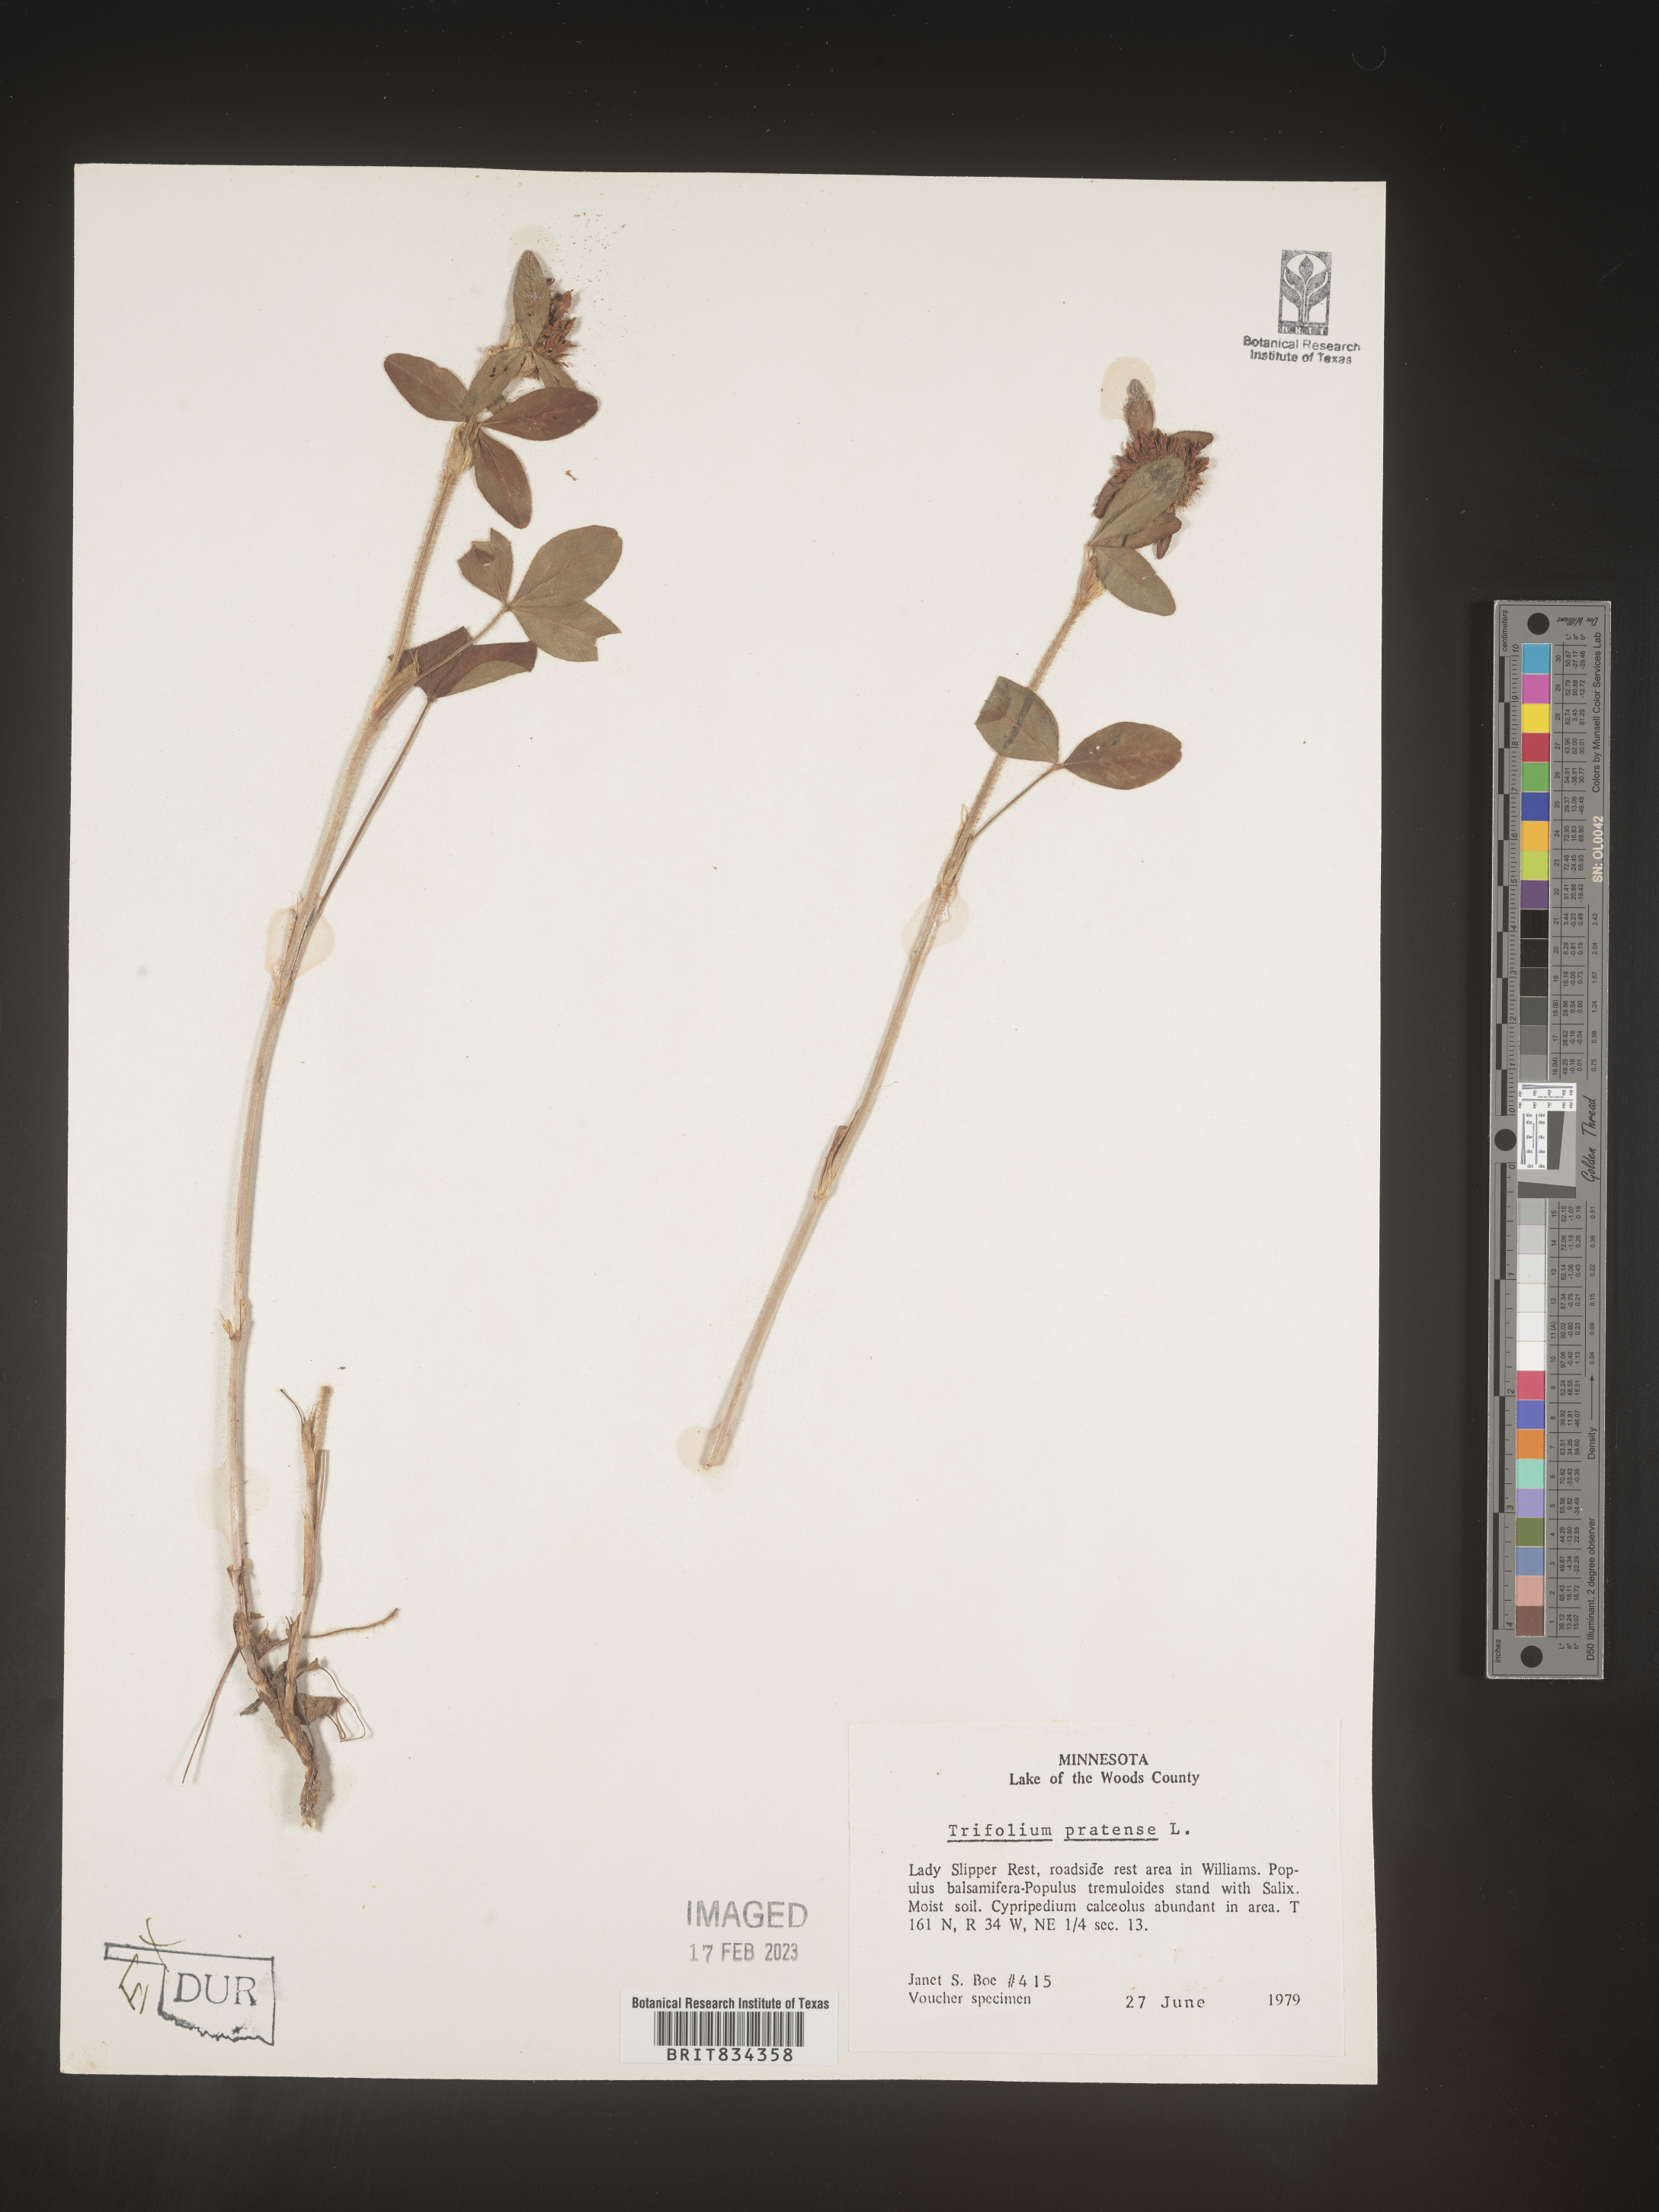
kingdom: Plantae
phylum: Tracheophyta
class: Magnoliopsida
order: Fabales
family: Fabaceae
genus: Trifolium
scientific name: Trifolium pratense
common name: Red clover
